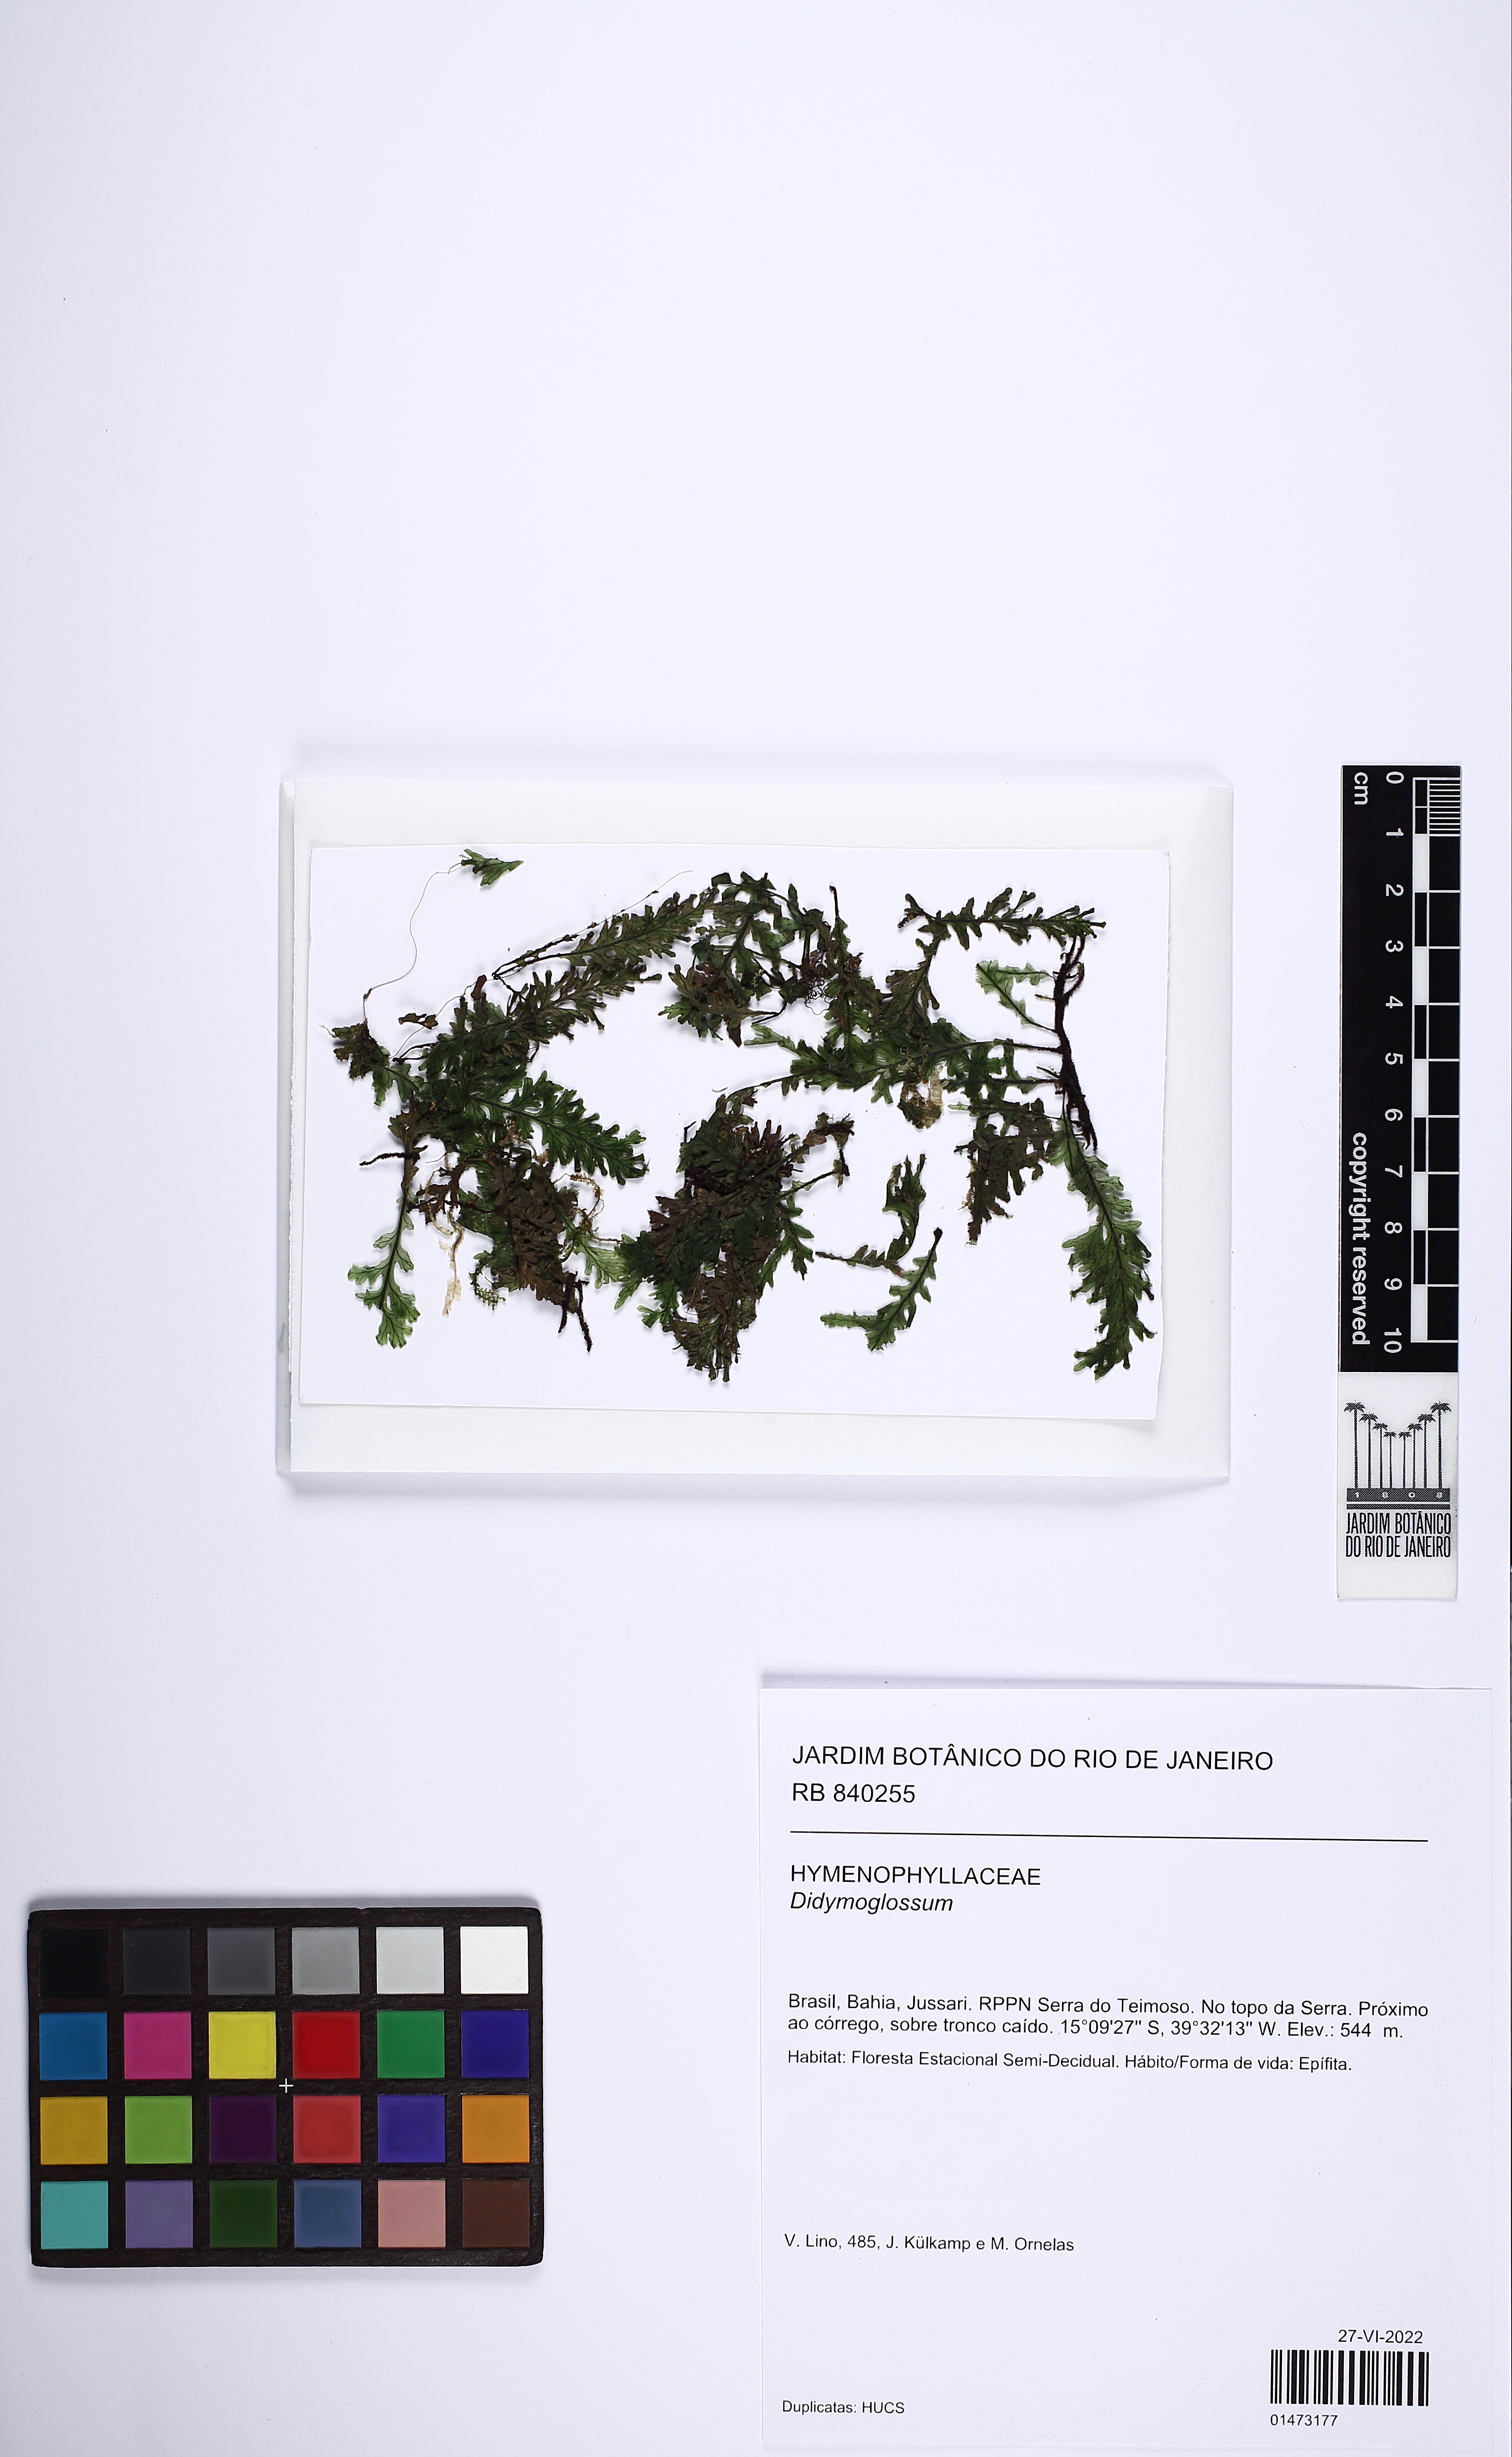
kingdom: Plantae
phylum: Tracheophyta
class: Polypodiopsida
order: Hymenophyllales
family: Hymenophyllaceae
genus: Didymoglossum
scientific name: Didymoglossum
